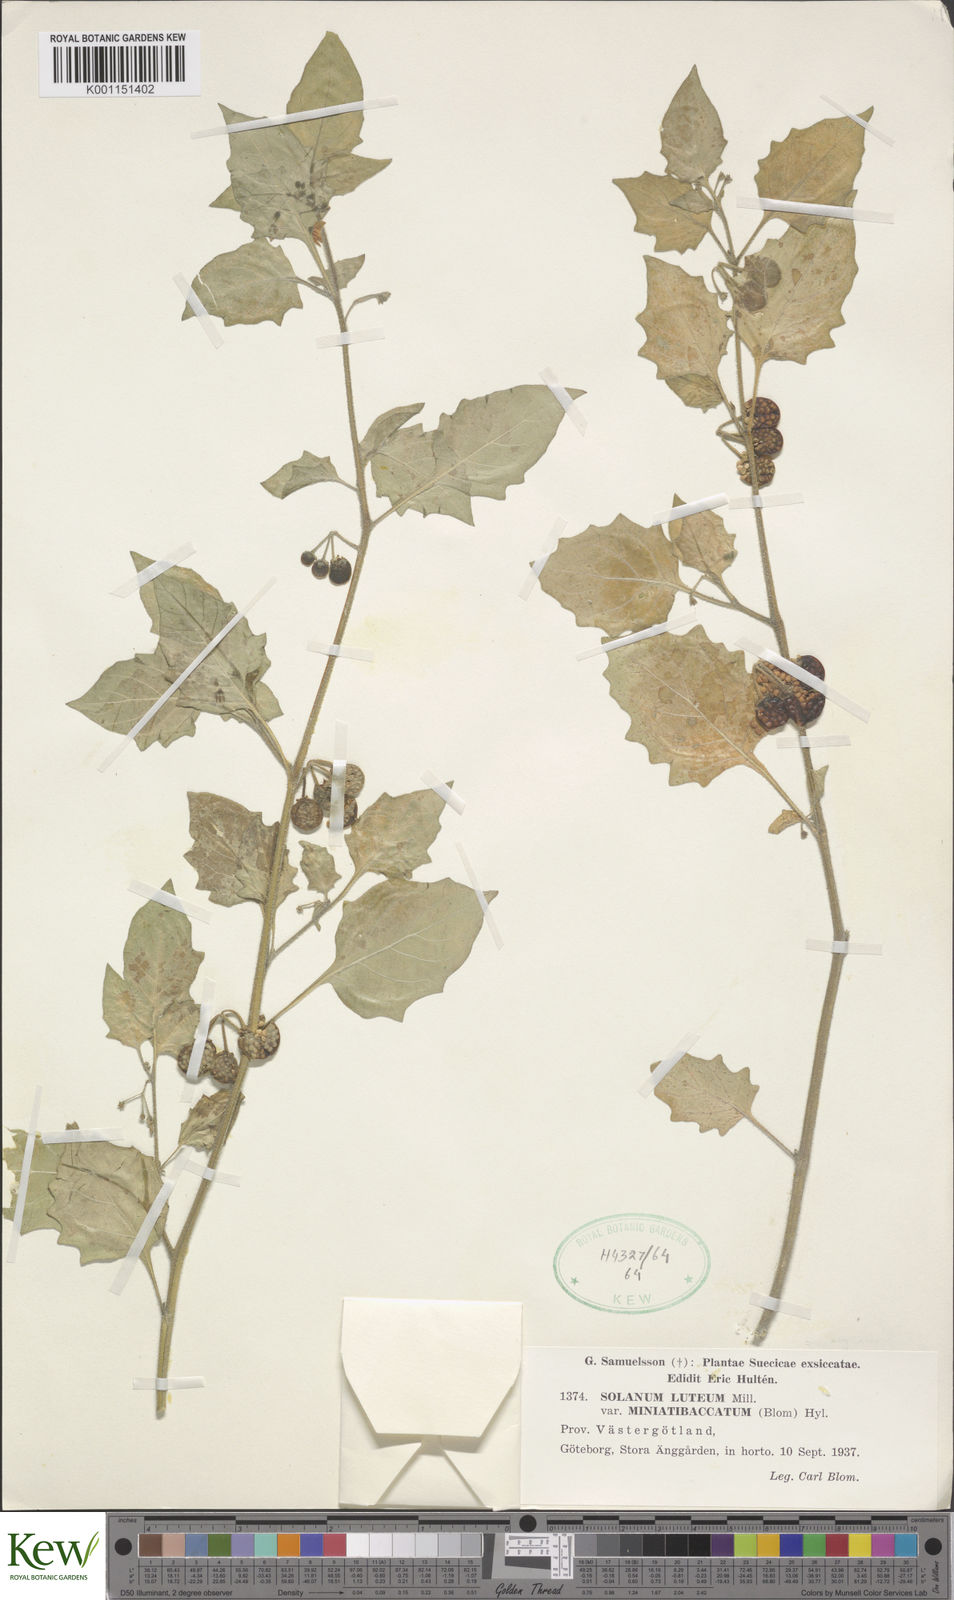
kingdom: Plantae
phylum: Tracheophyta
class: Magnoliopsida
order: Solanales
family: Solanaceae
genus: Solanum
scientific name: Solanum hoehnei
